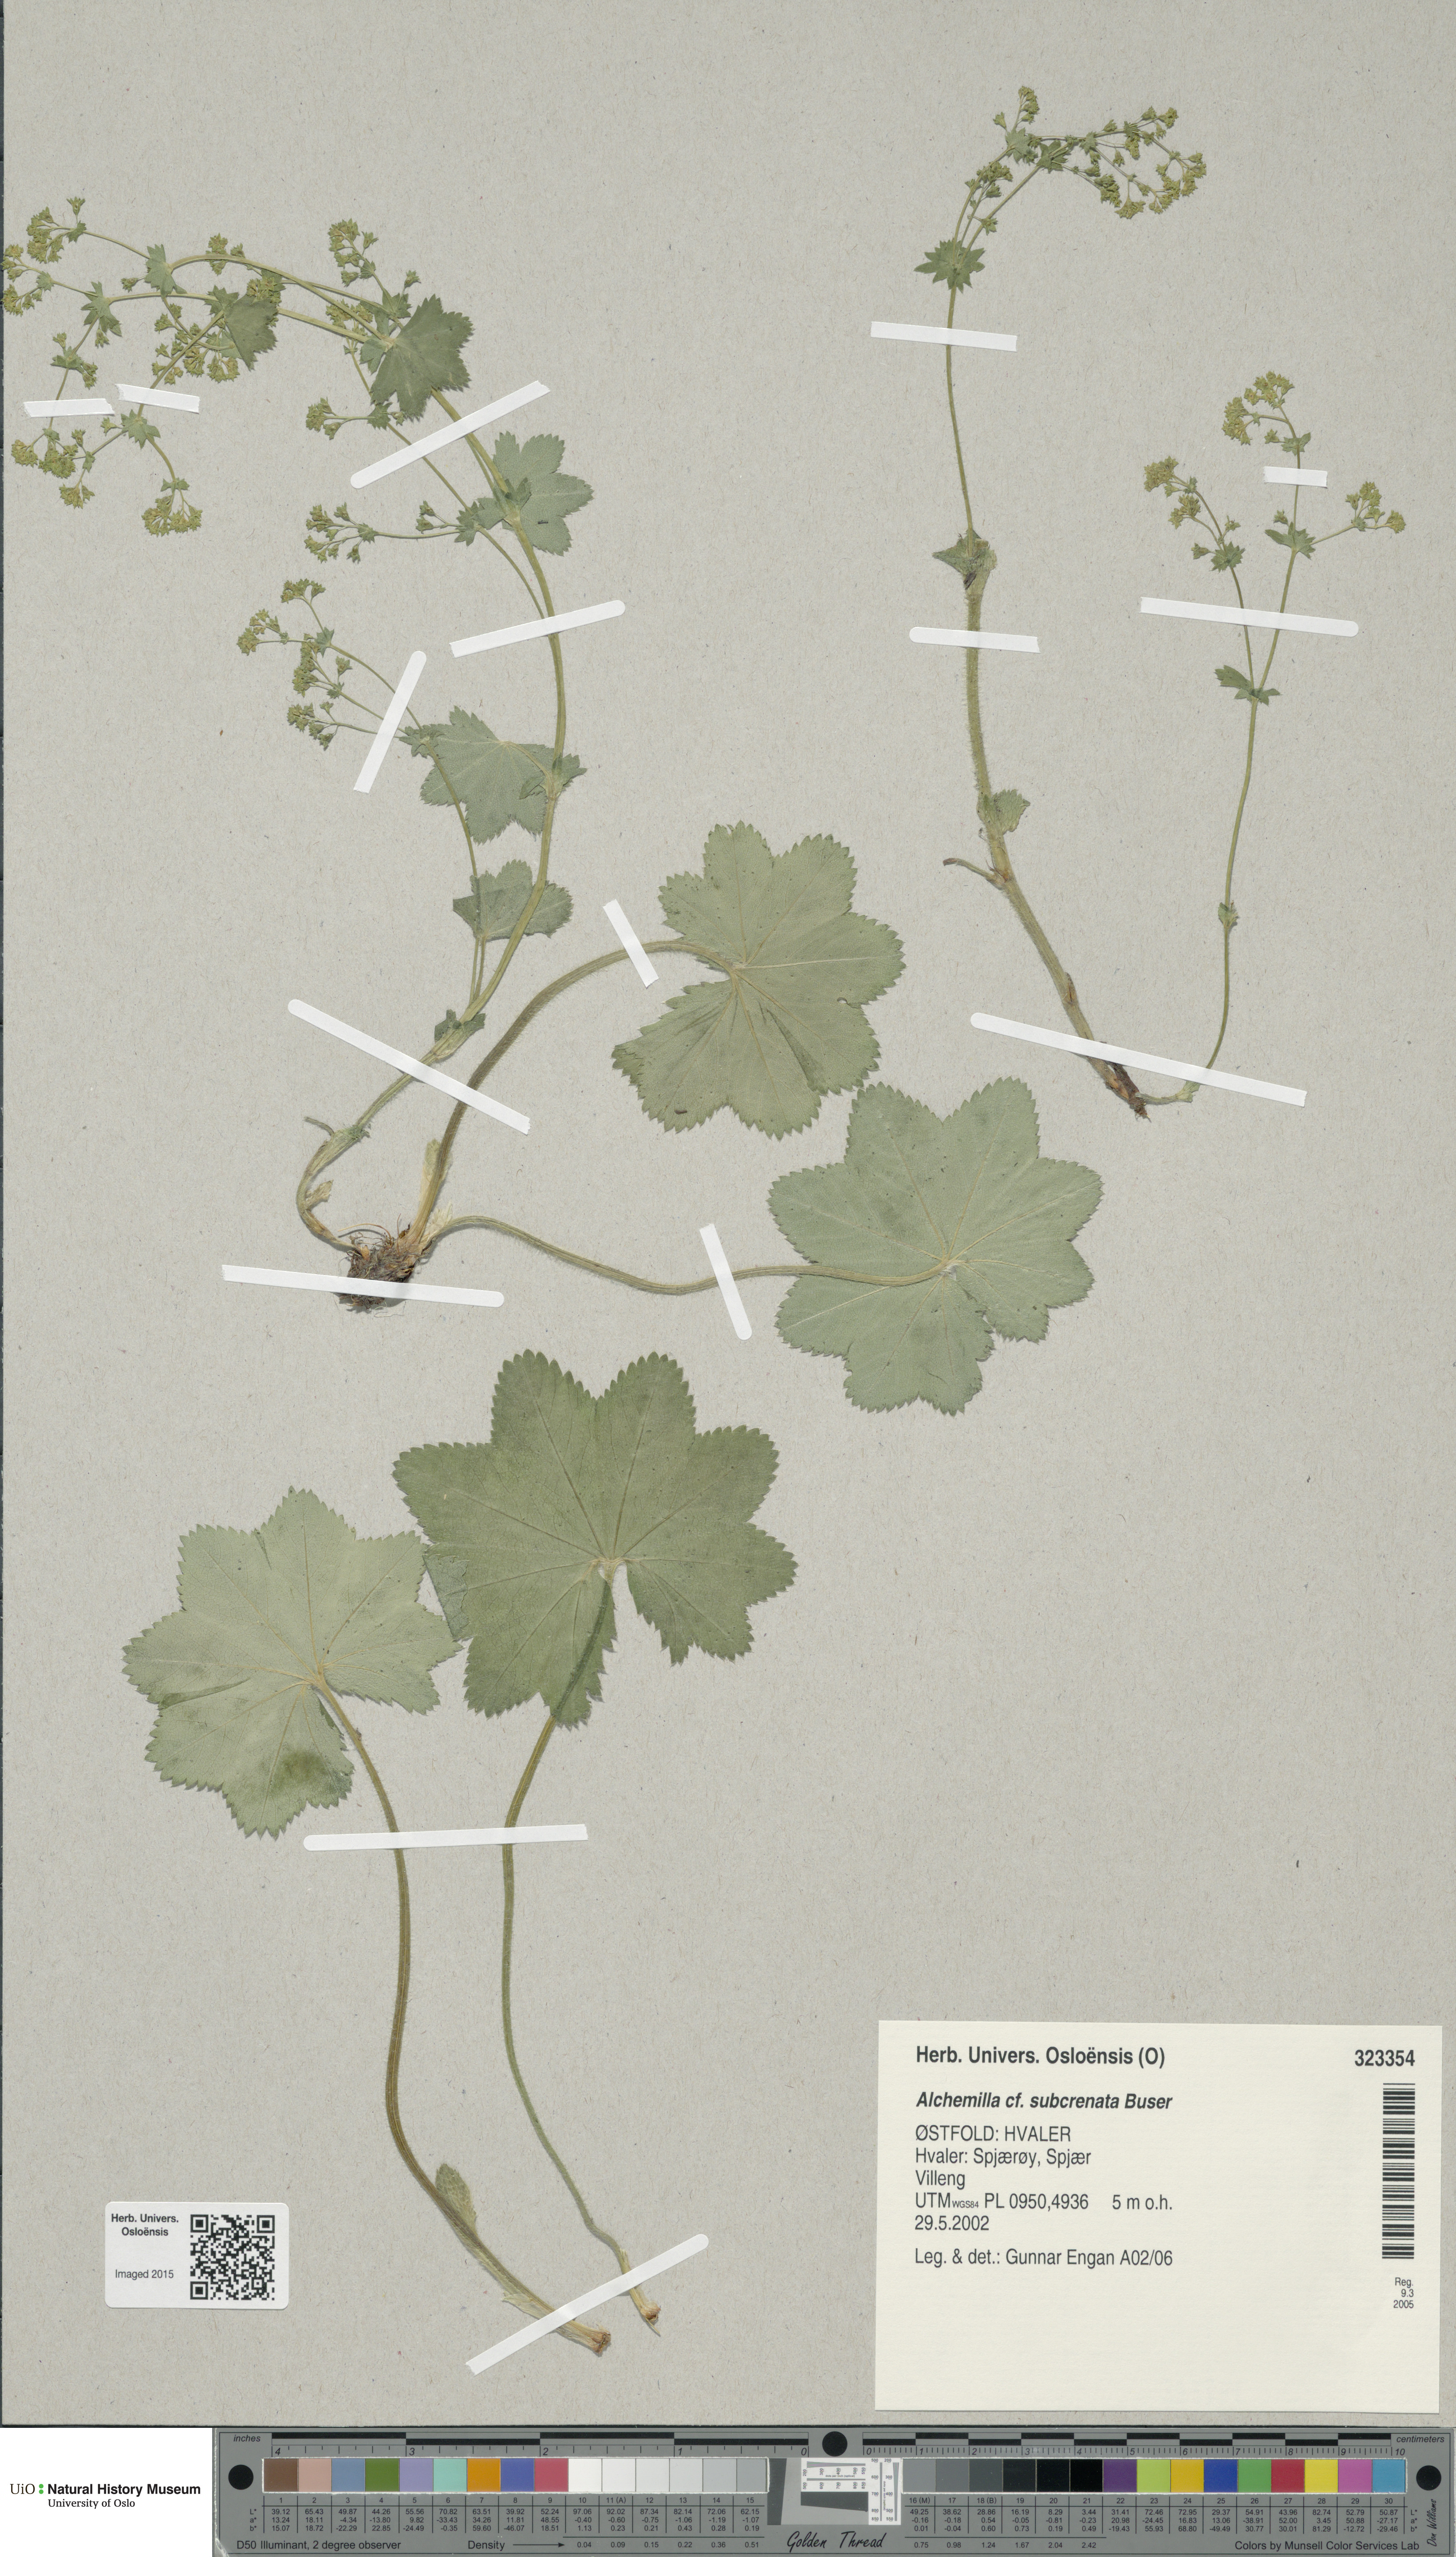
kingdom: Plantae
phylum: Tracheophyta
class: Magnoliopsida
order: Rosales
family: Rosaceae
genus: Alchemilla
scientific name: Alchemilla subcrenata
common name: Broadtooth lady's mantle
